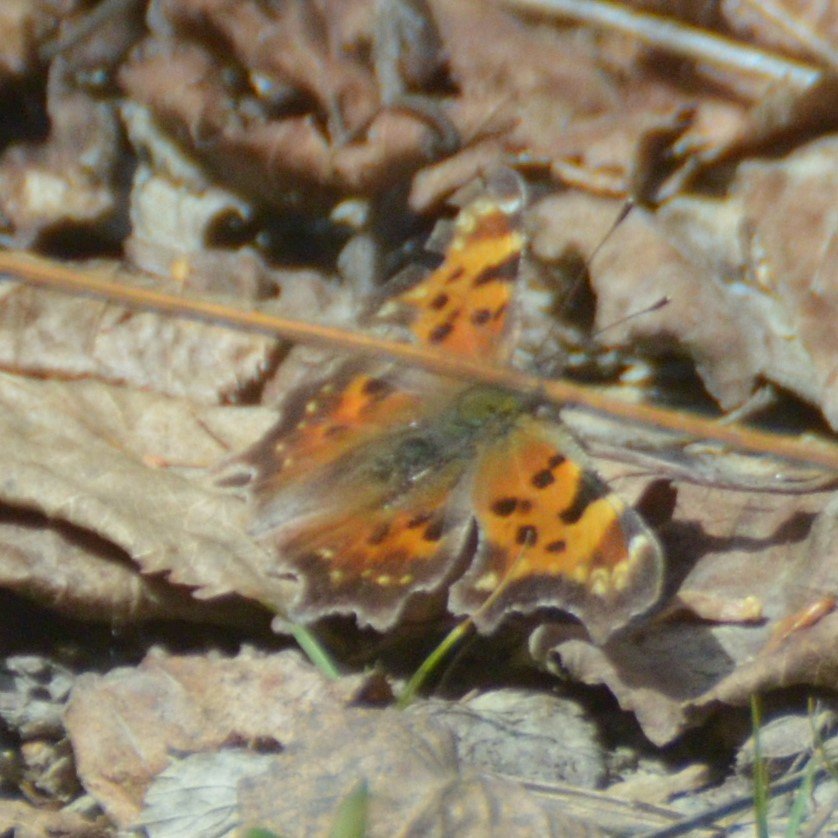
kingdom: Animalia
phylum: Arthropoda
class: Insecta
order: Lepidoptera
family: Nymphalidae
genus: Polygonia
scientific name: Polygonia faunus
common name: Green Comma
